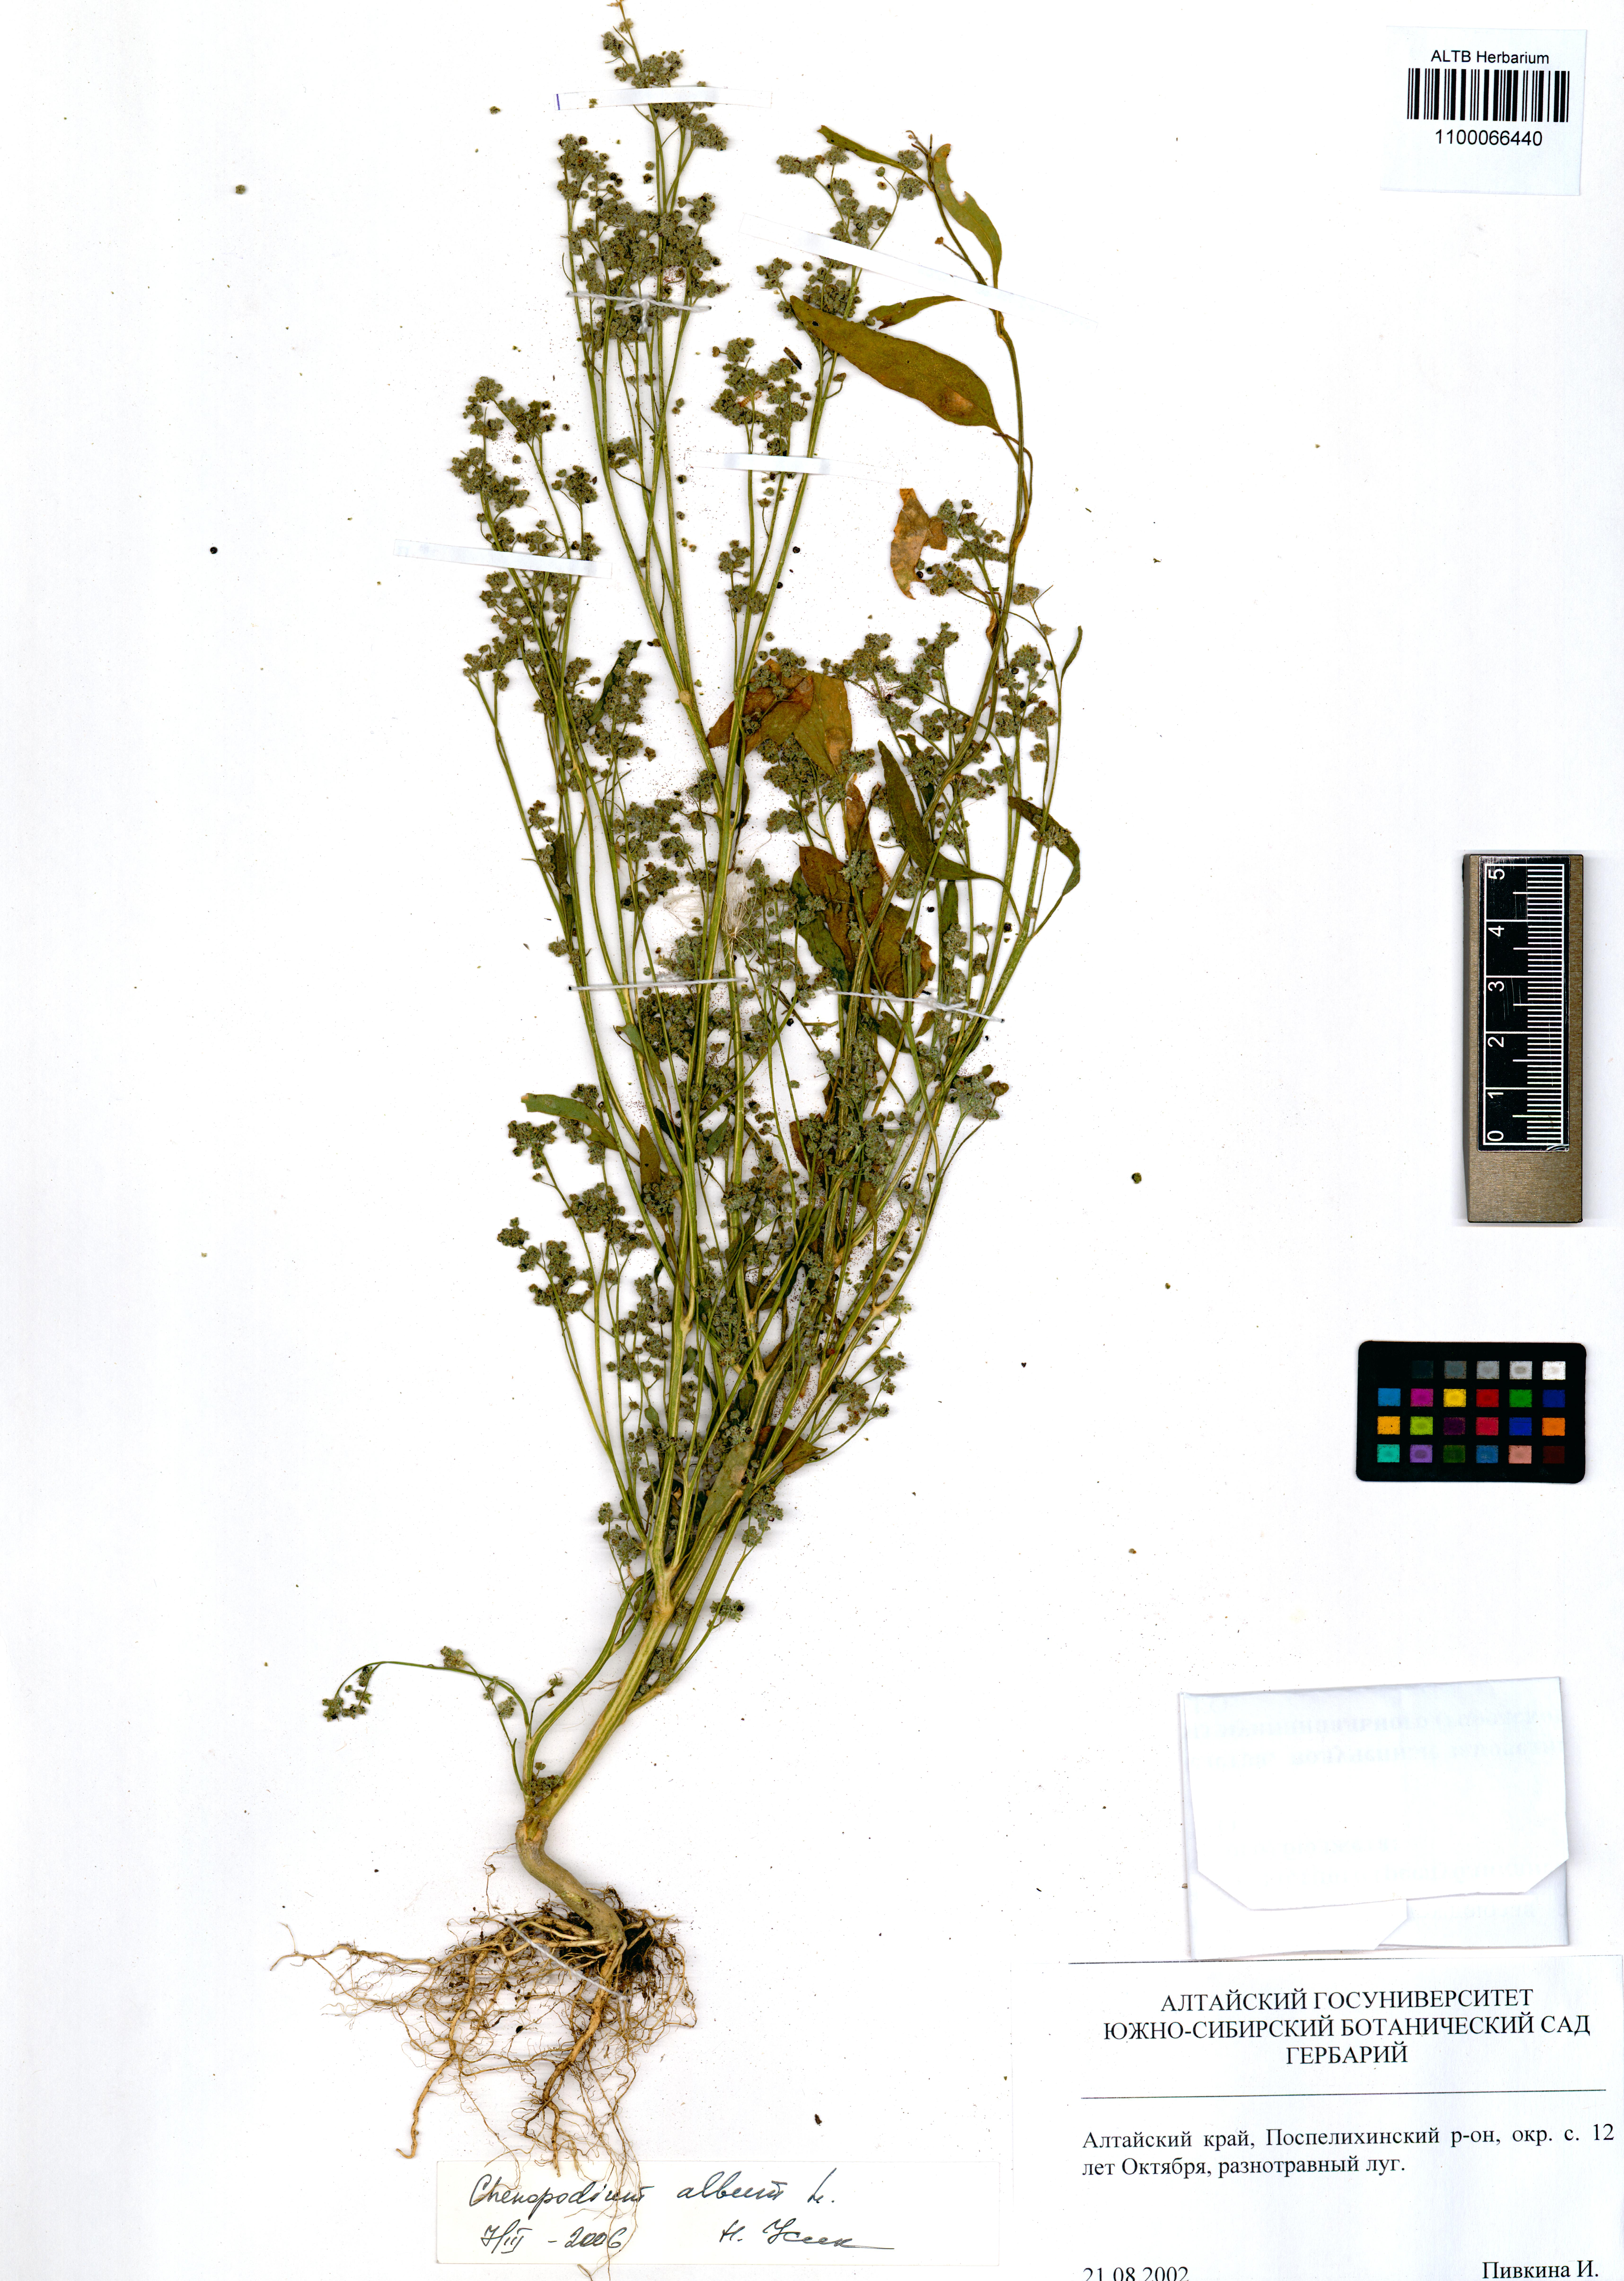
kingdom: Plantae
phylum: Tracheophyta
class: Magnoliopsida
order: Caryophyllales
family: Amaranthaceae
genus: Chenopodium
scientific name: Chenopodium album
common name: Fat-hen
